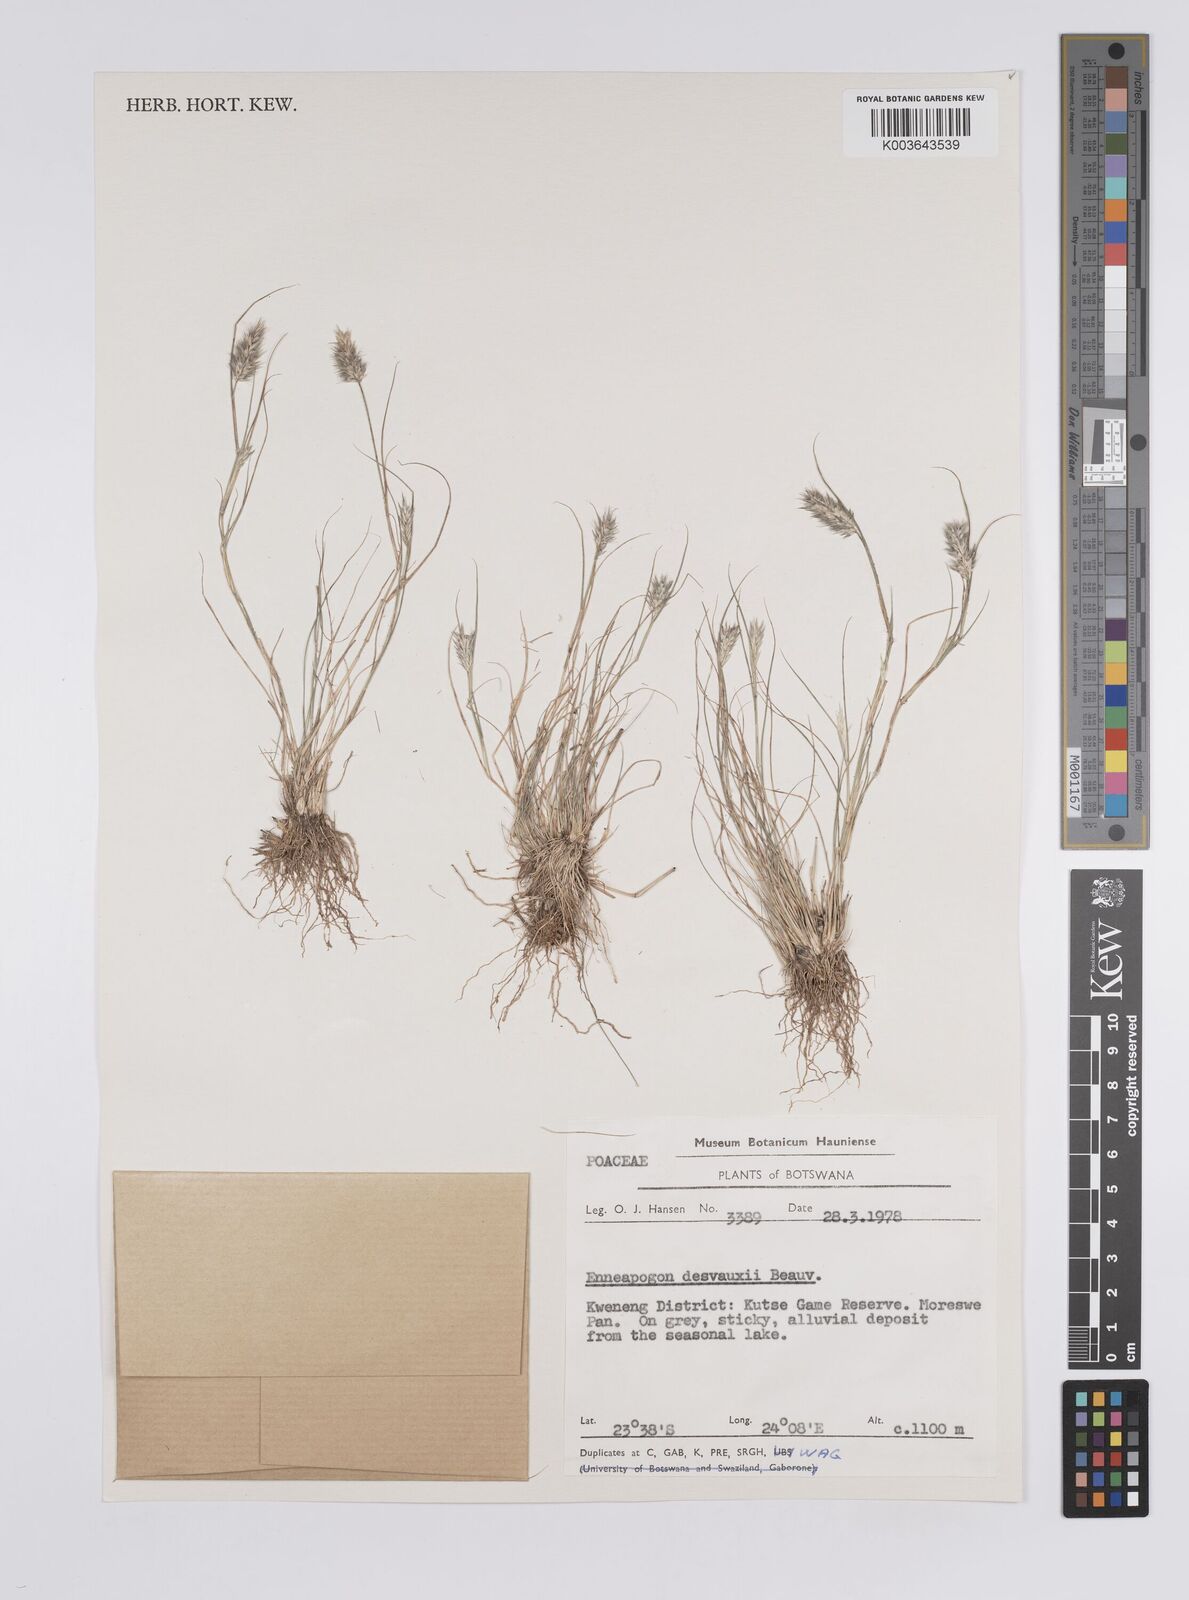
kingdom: Plantae
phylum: Tracheophyta
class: Liliopsida
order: Poales
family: Poaceae
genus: Enneapogon
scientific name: Enneapogon desvauxii
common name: Feather pappus grass
